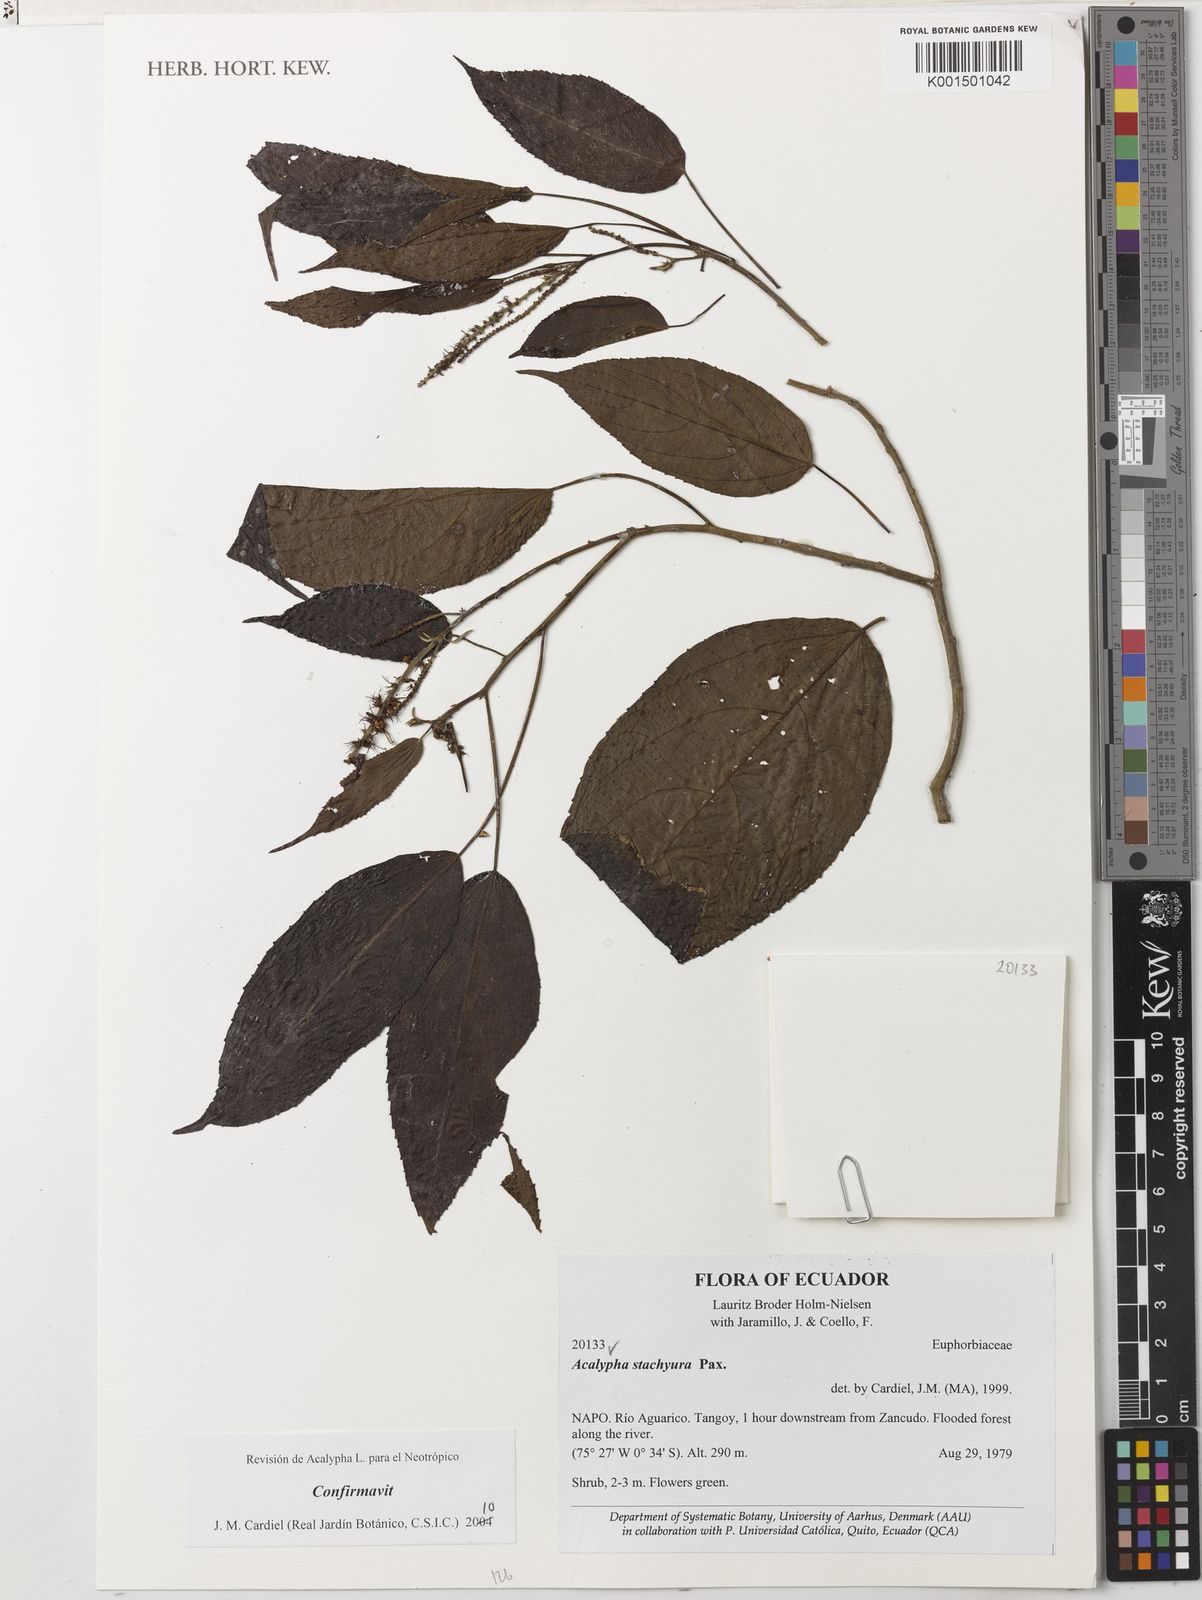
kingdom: Plantae
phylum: Tracheophyta
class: Magnoliopsida
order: Malpighiales
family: Euphorbiaceae
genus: Acalypha
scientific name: Acalypha stachyura
